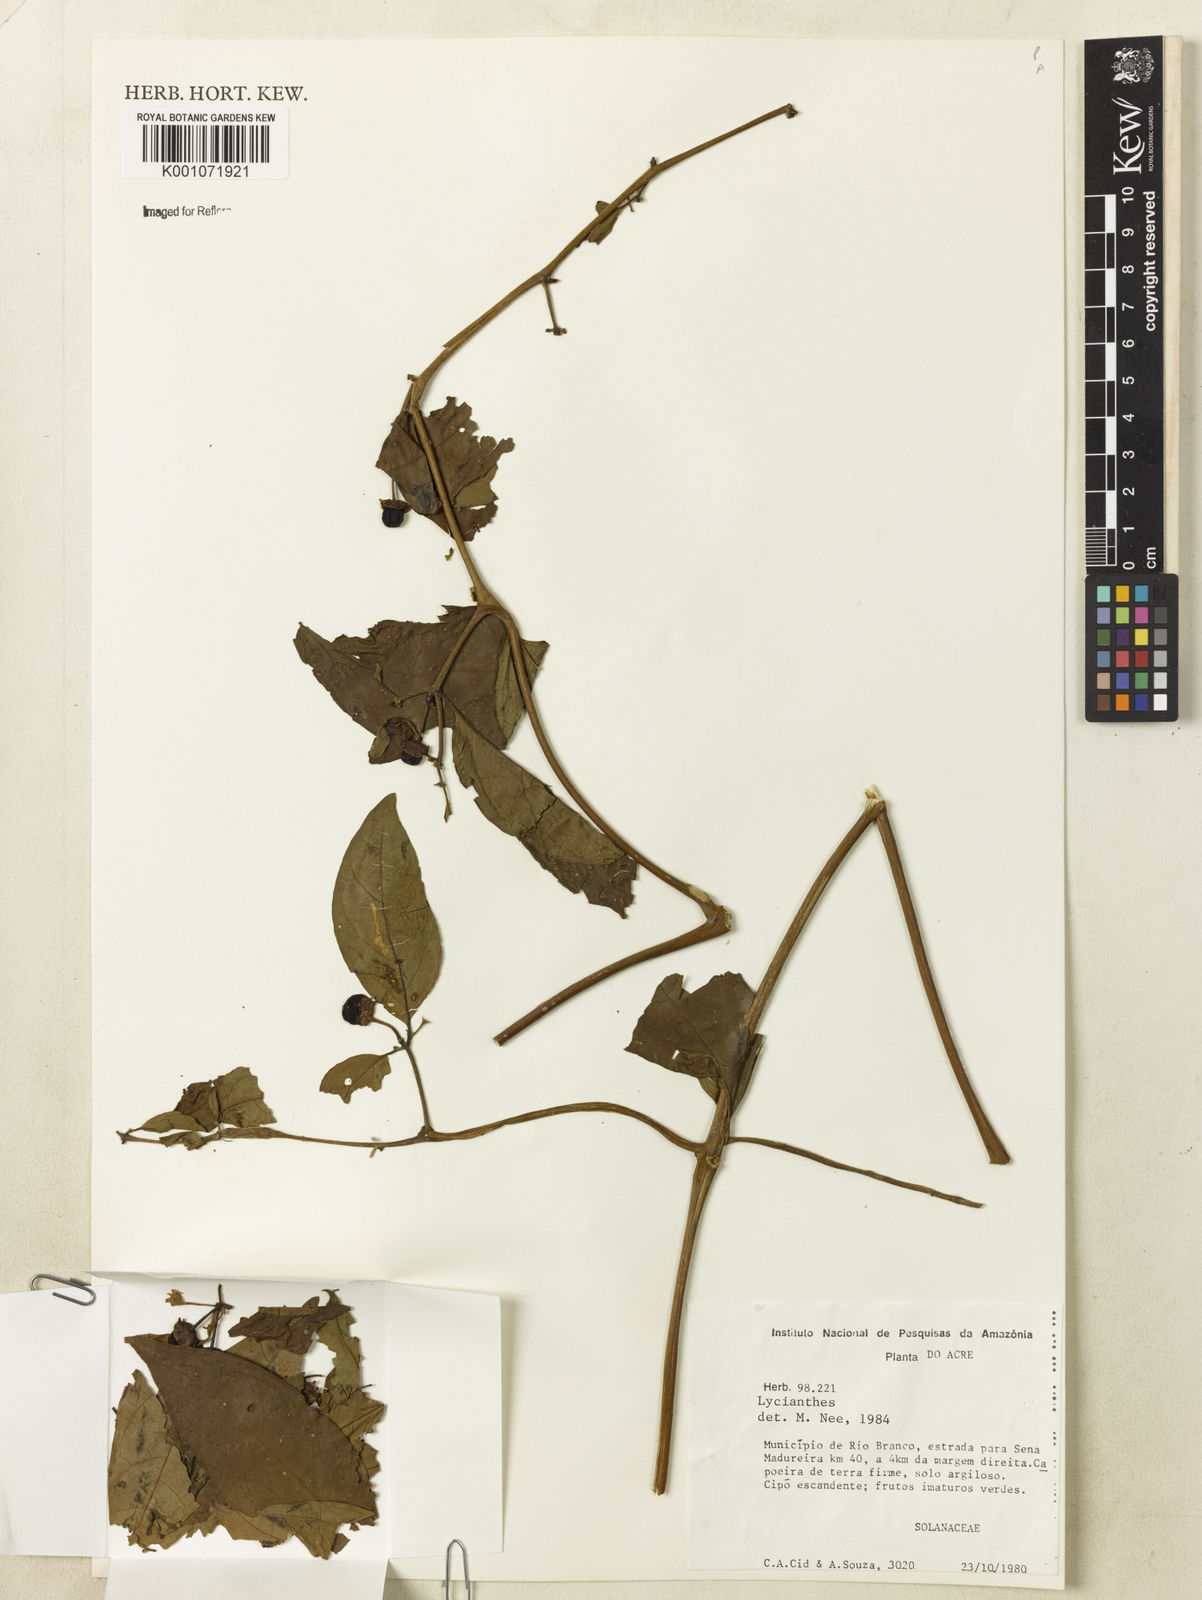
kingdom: Plantae
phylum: Tracheophyta
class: Magnoliopsida
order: Solanales
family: Solanaceae
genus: Lycianthes
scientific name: Lycianthes
